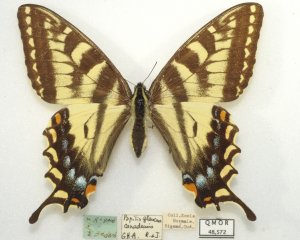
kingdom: Animalia
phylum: Arthropoda
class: Insecta
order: Lepidoptera
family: Papilionidae
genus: Pterourus
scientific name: Pterourus glaucus
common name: Eastern Tiger Swallowtail
